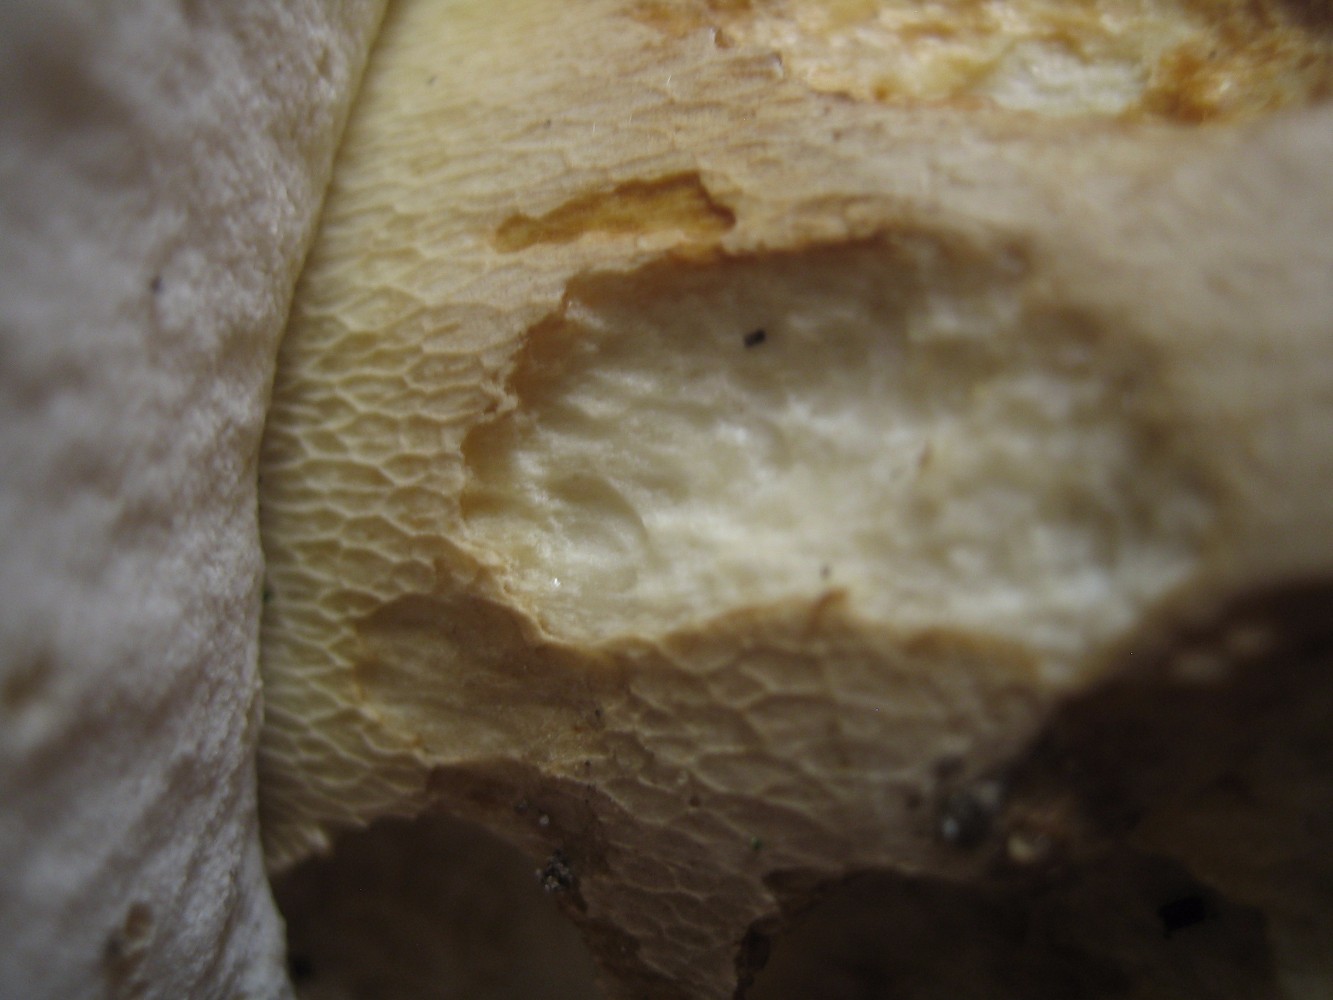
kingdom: Fungi
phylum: Basidiomycota
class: Agaricomycetes
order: Boletales
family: Boletaceae
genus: Boletus
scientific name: Boletus reticulatus
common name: sommer-rørhat
